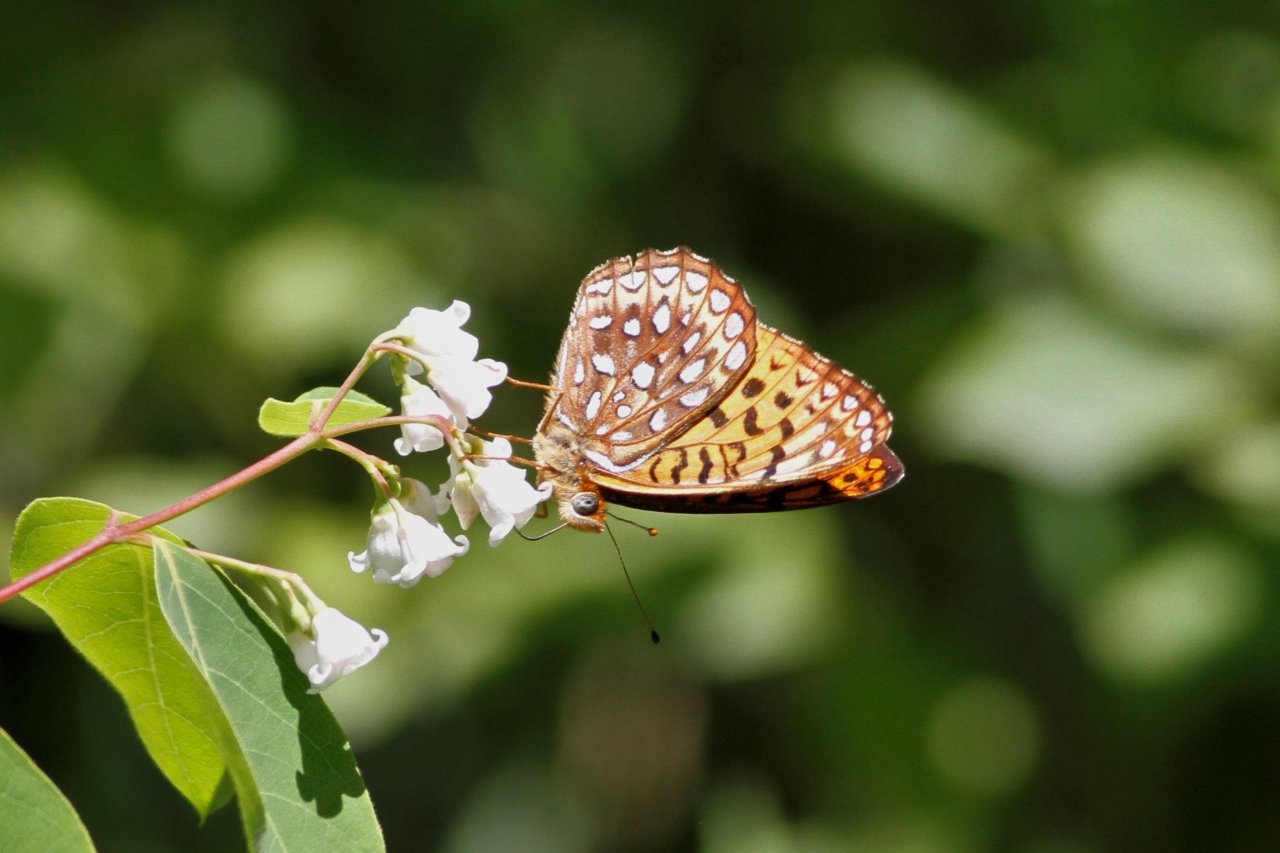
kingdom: Animalia
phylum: Arthropoda
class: Insecta
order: Lepidoptera
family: Nymphalidae
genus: Speyeria
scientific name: Speyeria atlantis
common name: Atlantis Fritillary
